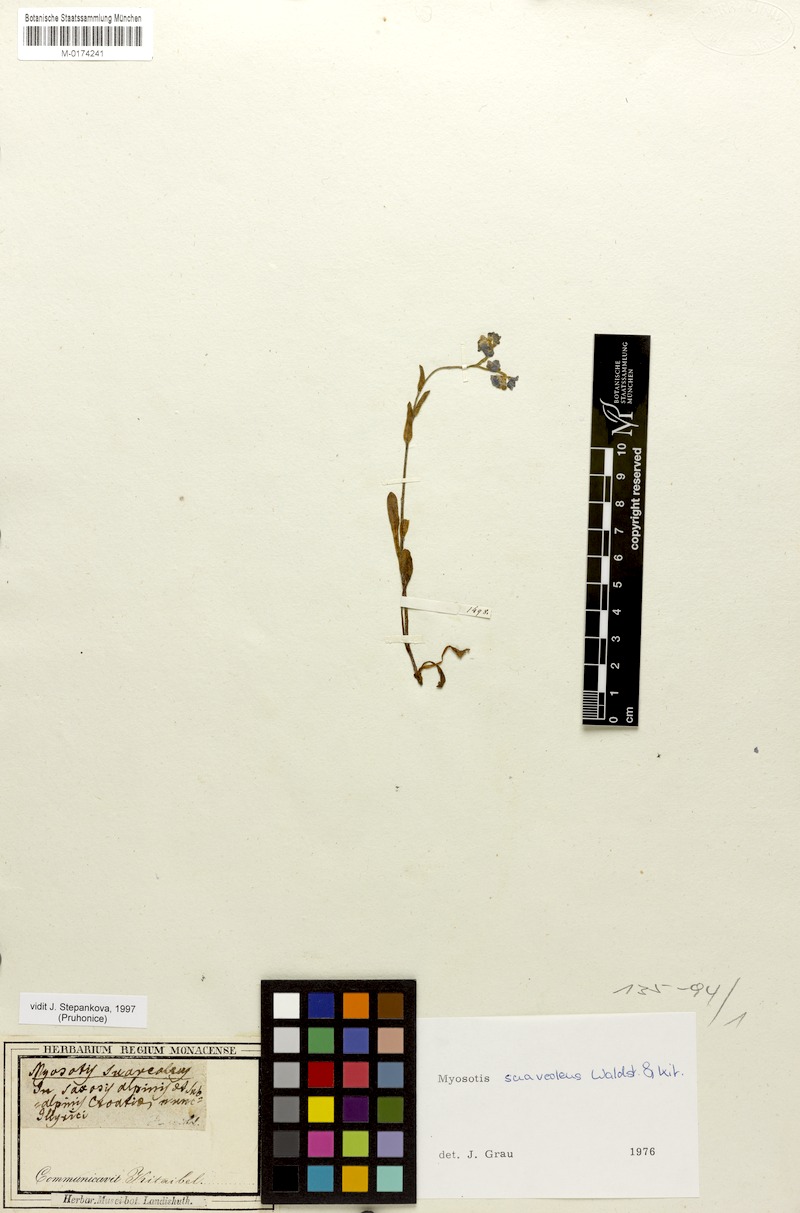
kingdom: Plantae
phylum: Tracheophyta
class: Magnoliopsida
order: Boraginales
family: Boraginaceae
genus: Myosotis
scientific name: Myosotis alpestris
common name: Alpine forget-me-not
